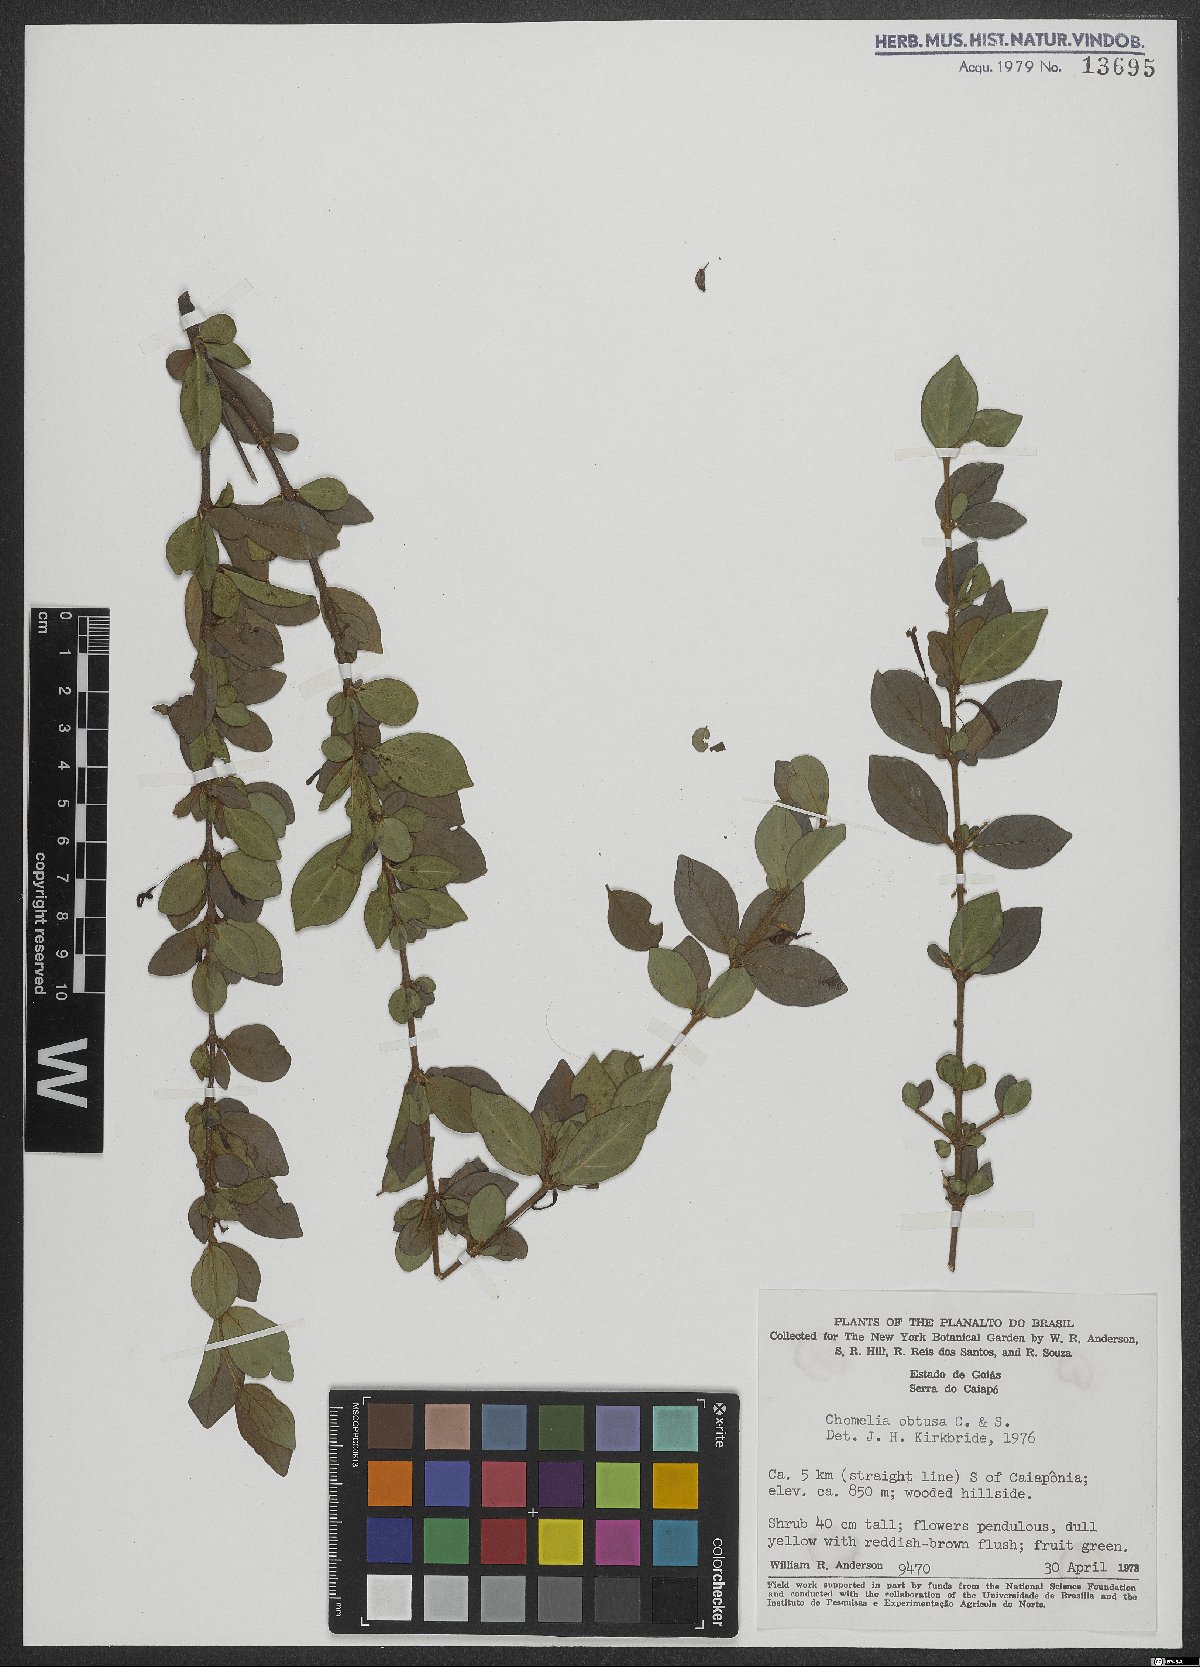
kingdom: Plantae
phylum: Tracheophyta
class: Magnoliopsida
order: Gentianales
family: Rubiaceae
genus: Chomelia
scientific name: Chomelia obtusa
